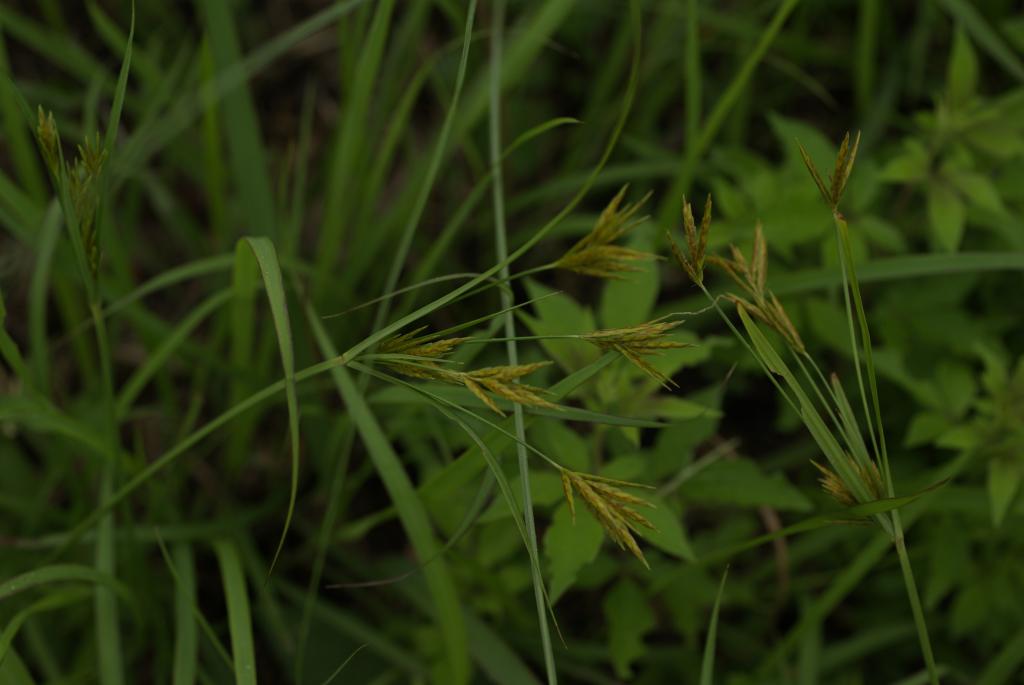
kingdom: Plantae
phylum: Tracheophyta
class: Liliopsida
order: Poales
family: Cyperaceae
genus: Cyperus
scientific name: Cyperus tenuiculmis
